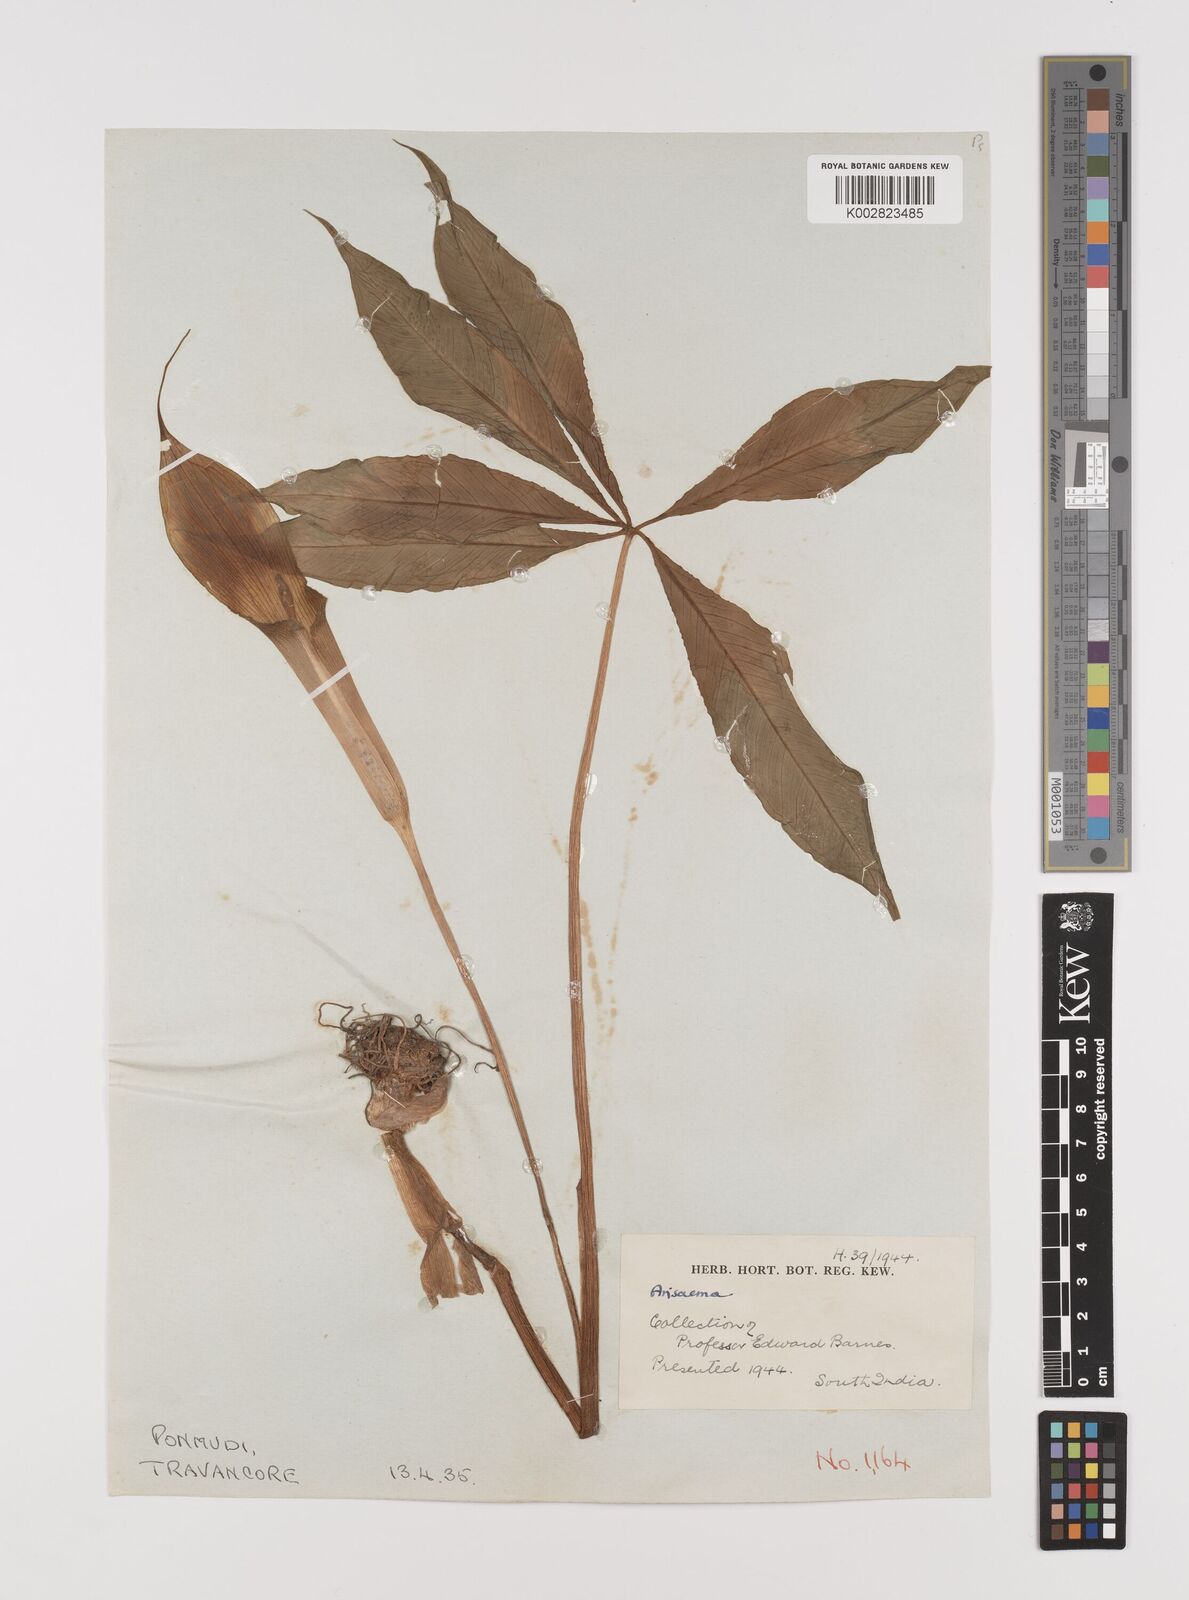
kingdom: Plantae
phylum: Tracheophyta
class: Liliopsida
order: Alismatales
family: Araceae
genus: Arisaema
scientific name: Arisaema
